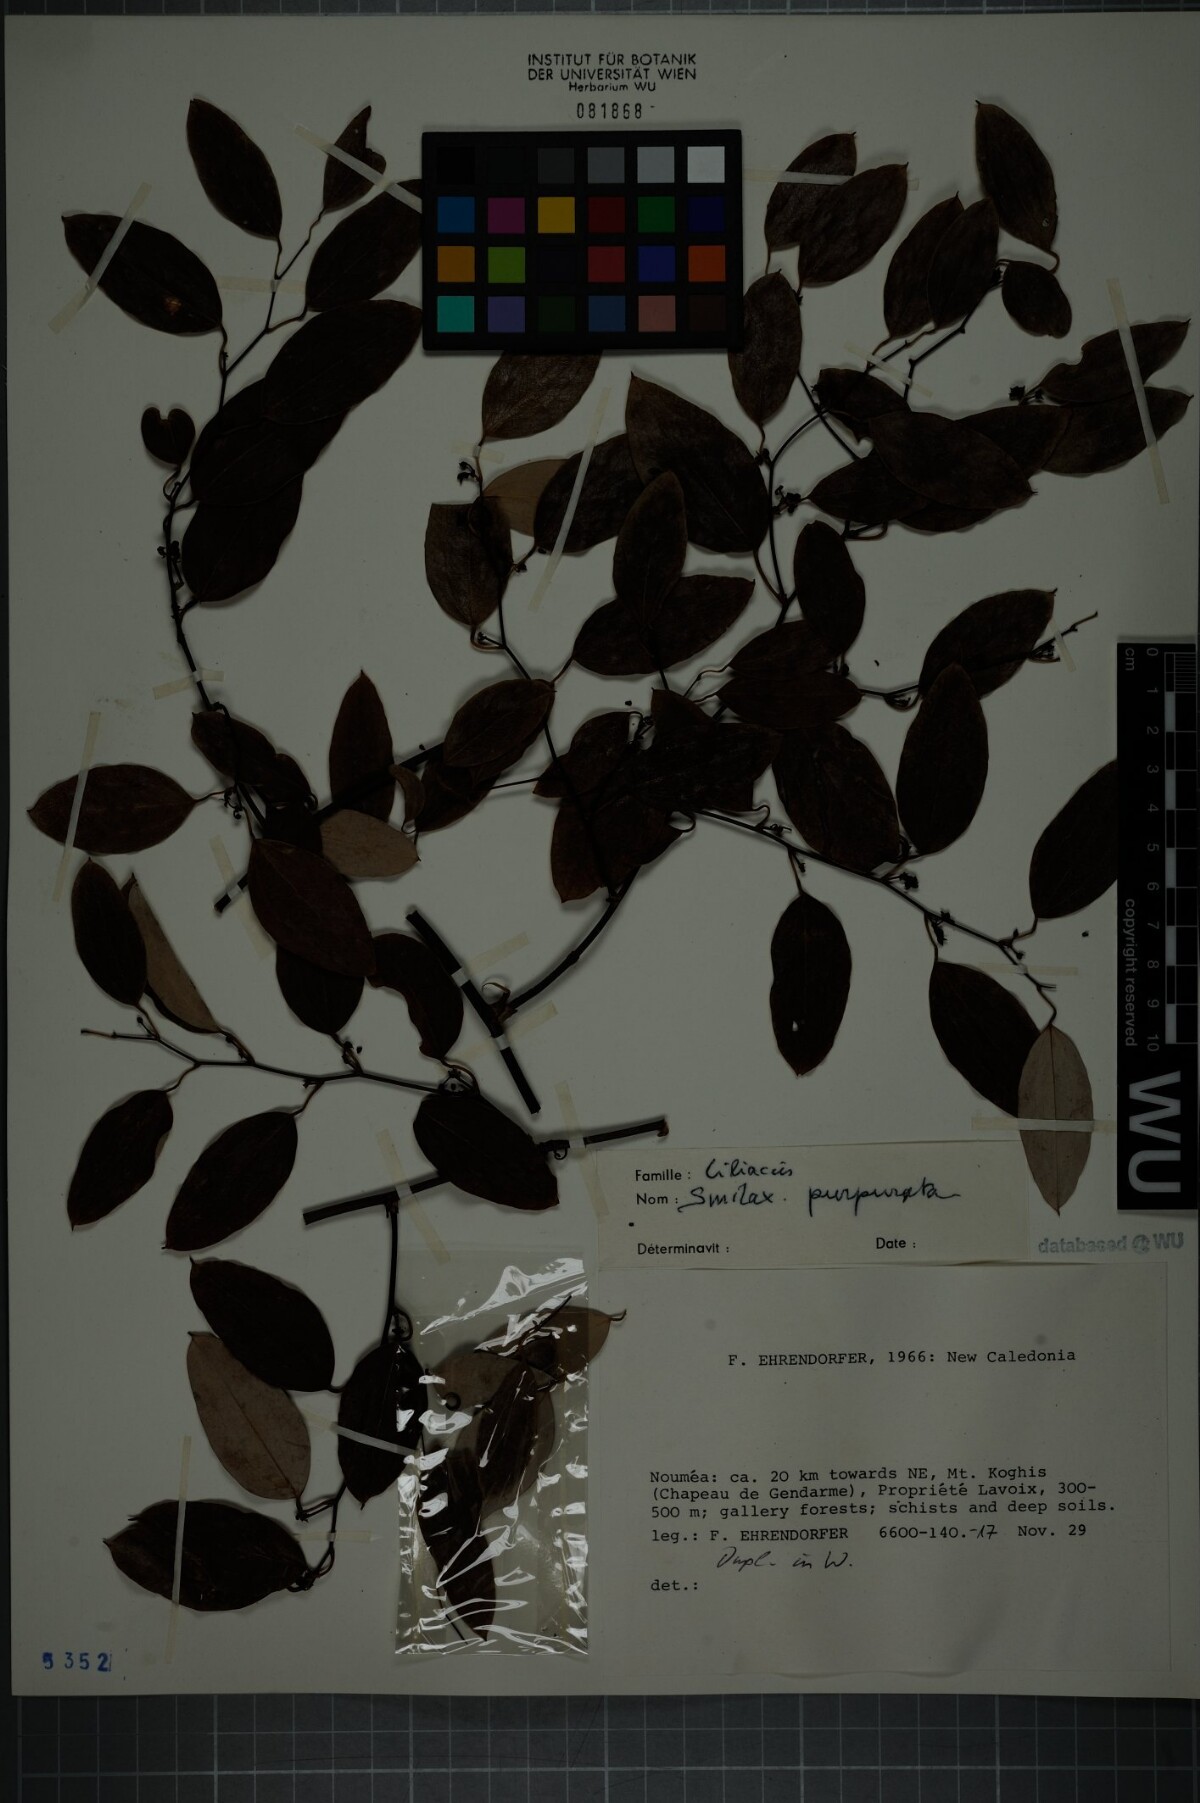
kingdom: Plantae
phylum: Tracheophyta
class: Liliopsida
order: Liliales
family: Smilacaceae
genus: Smilax
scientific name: Smilax purpurata
